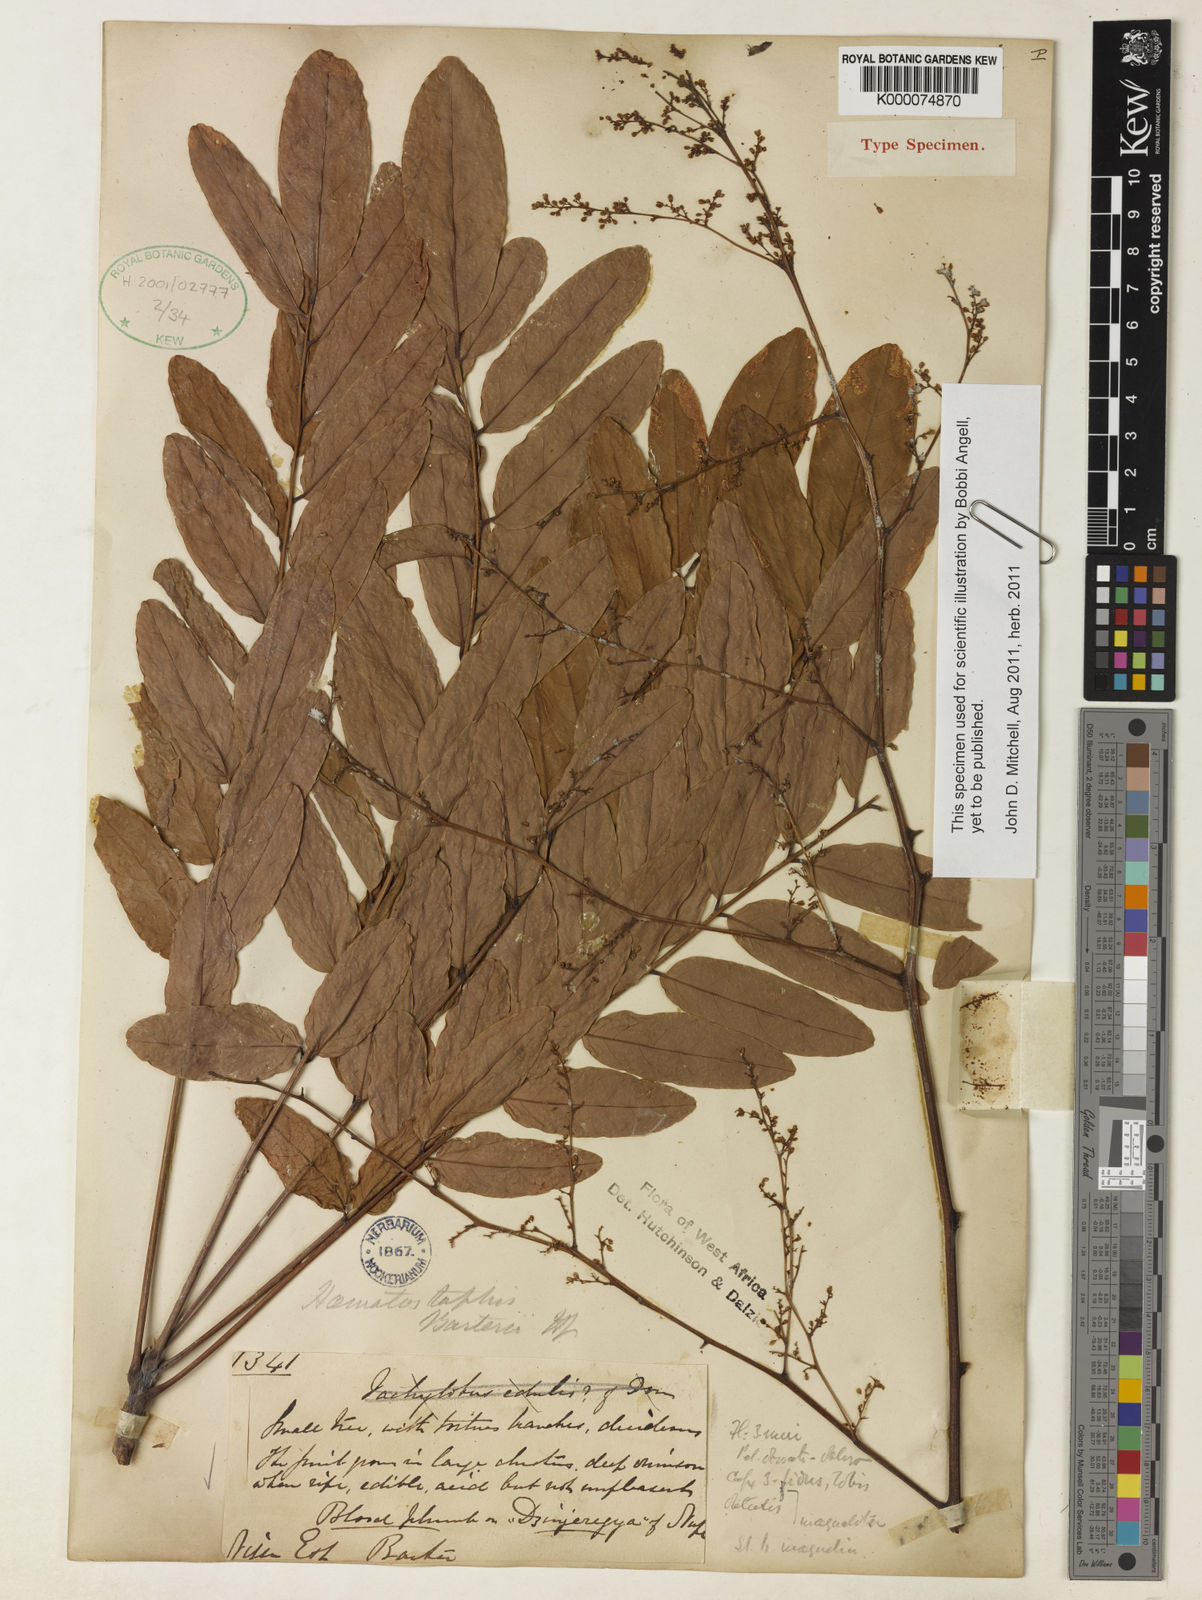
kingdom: Plantae
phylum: Tracheophyta
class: Magnoliopsida
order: Sapindales
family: Anacardiaceae
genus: Haematostaphis
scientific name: Haematostaphis barteri
